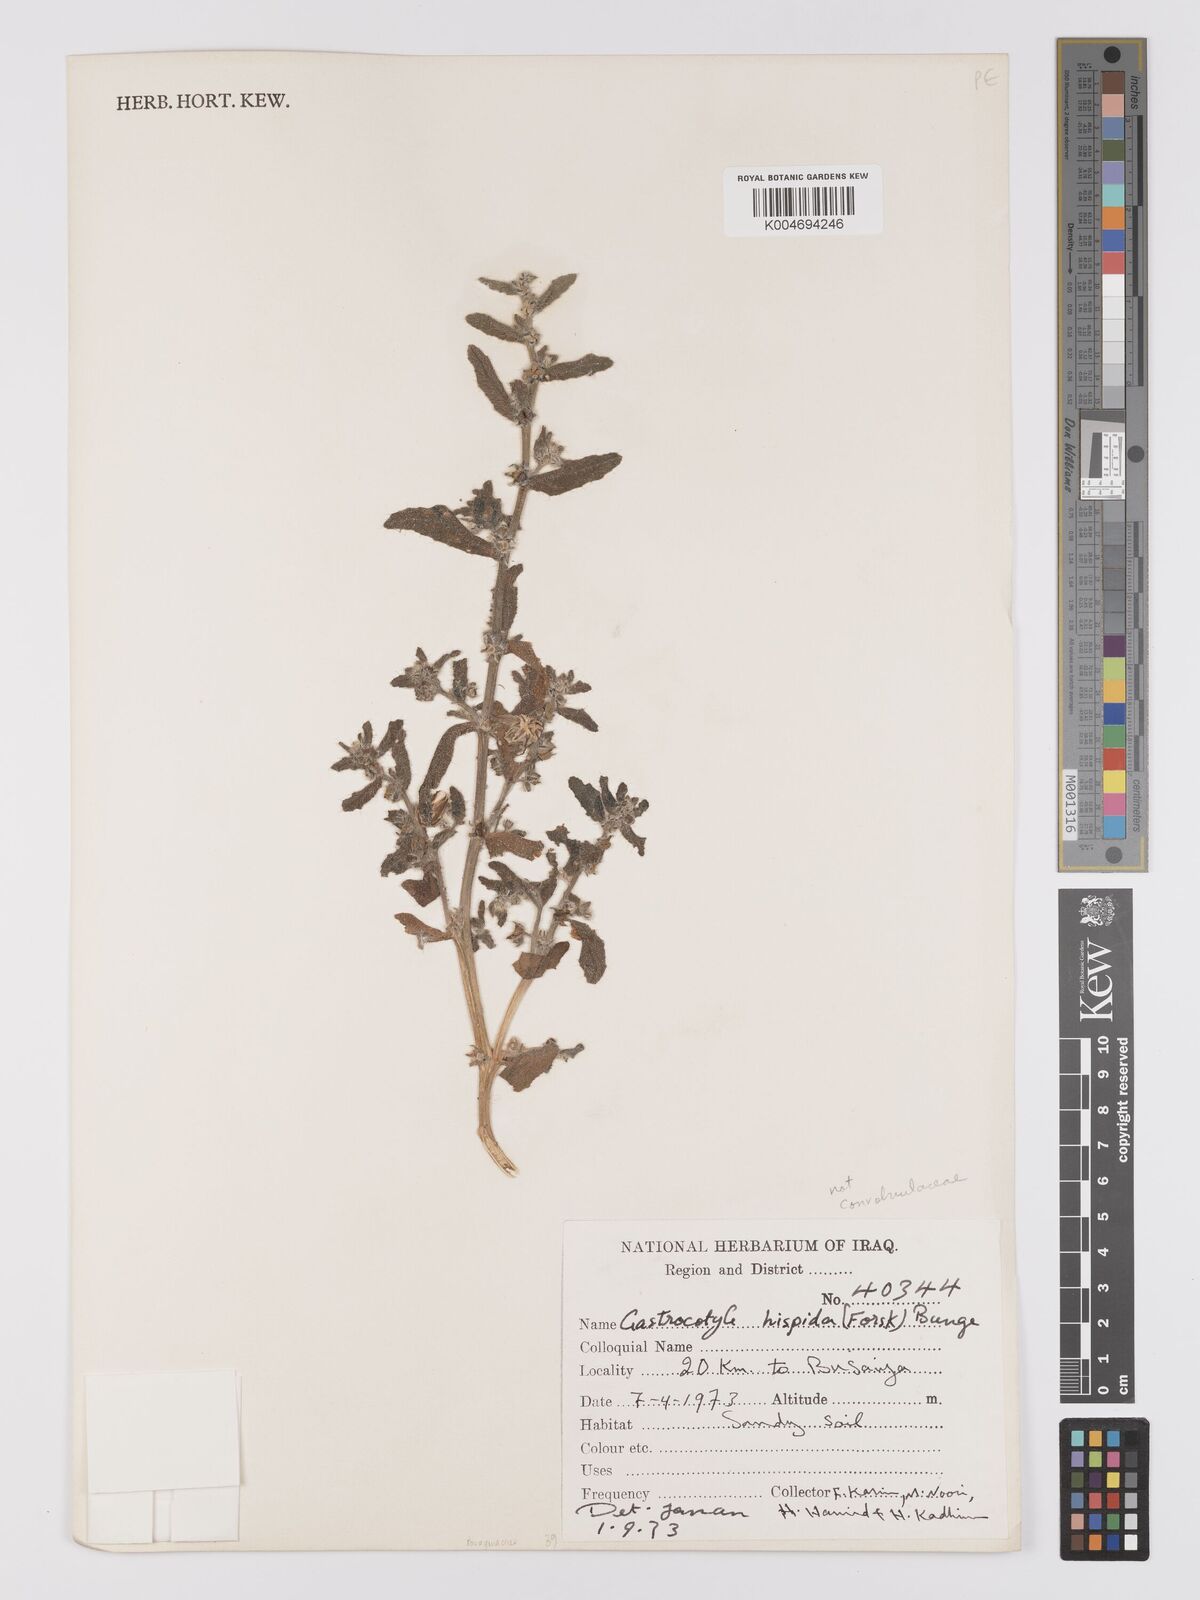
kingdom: Plantae
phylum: Tracheophyta
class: Magnoliopsida
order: Boraginales
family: Boraginaceae
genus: Gastrocotyle
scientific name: Gastrocotyle hispida
